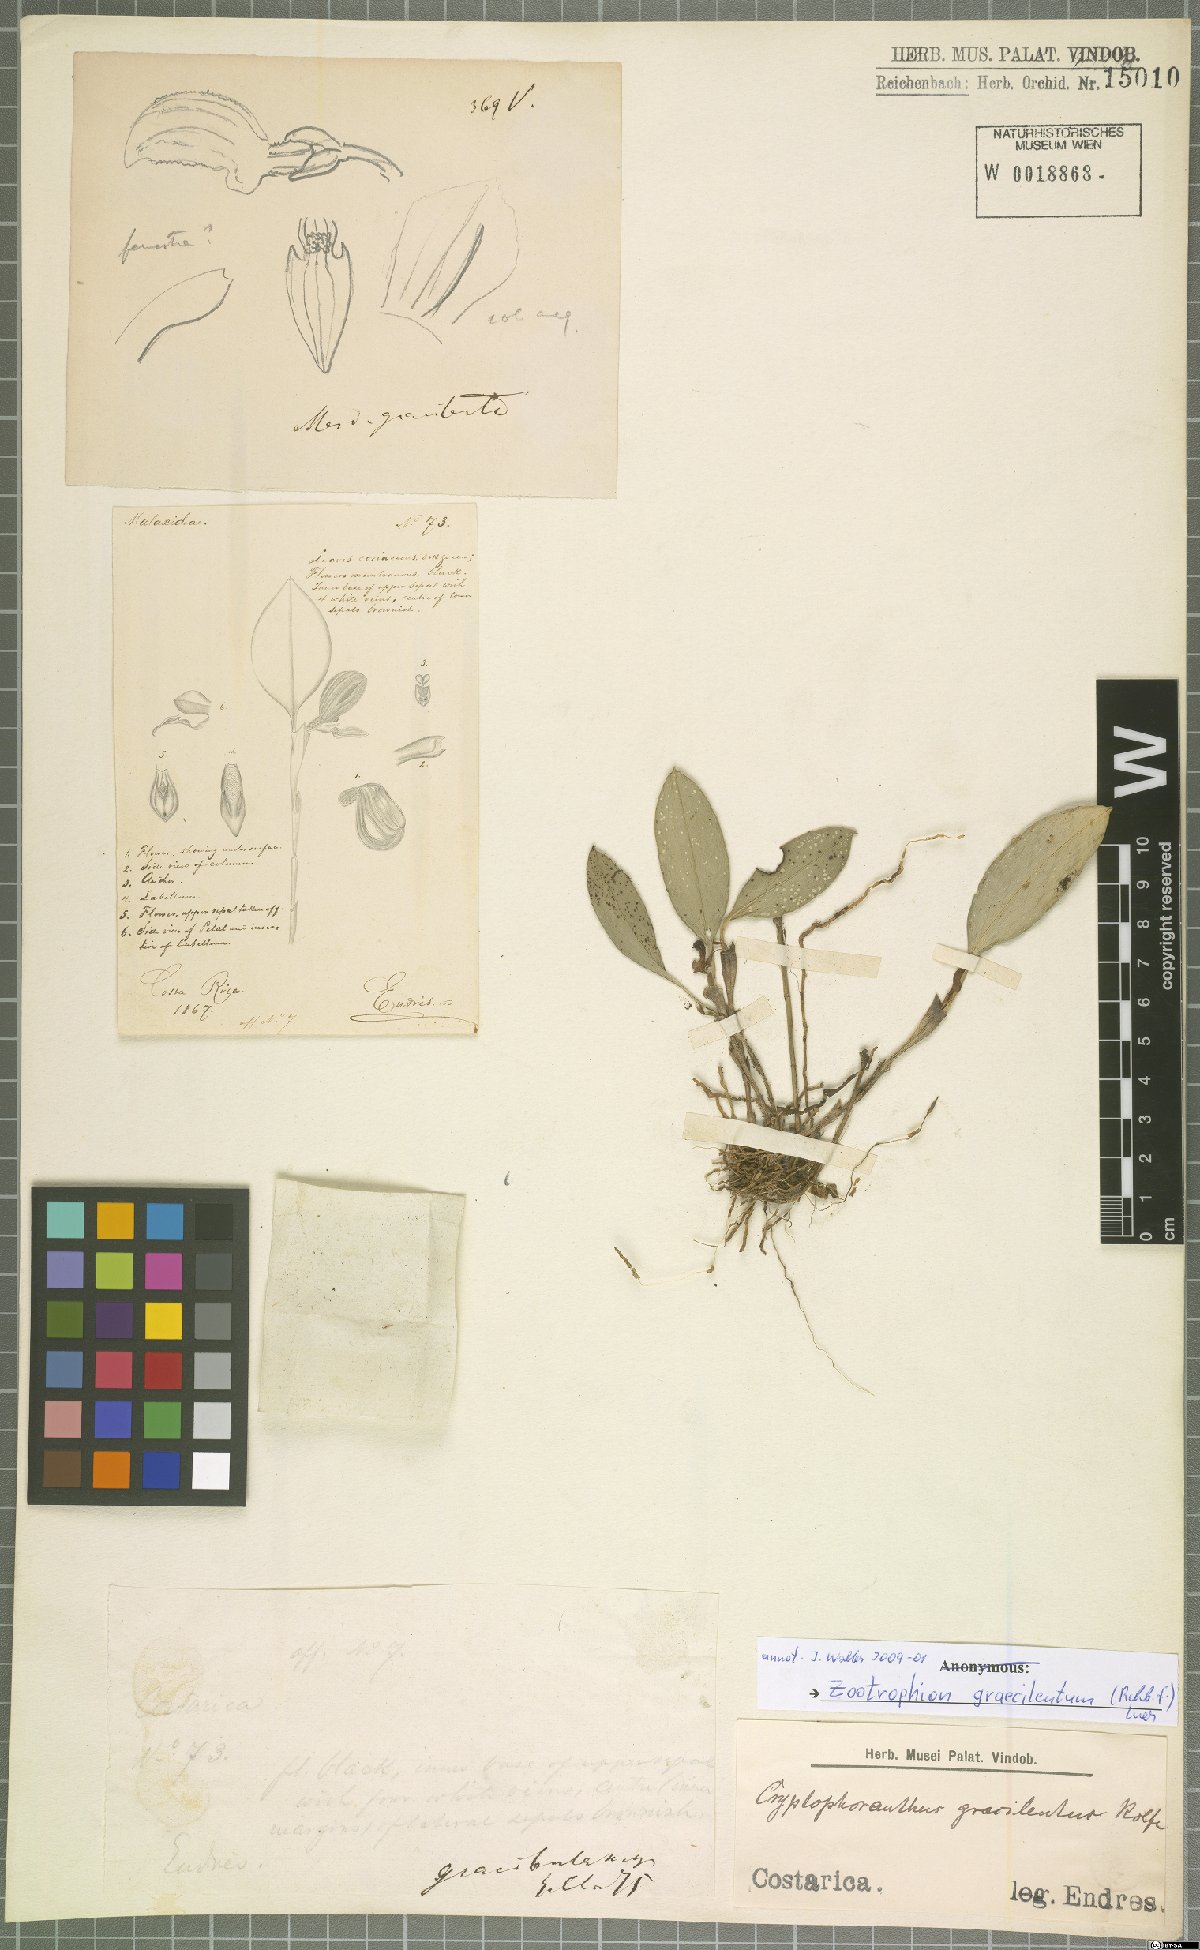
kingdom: Plantae
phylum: Tracheophyta
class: Liliopsida
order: Asparagales
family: Orchidaceae
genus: Zootrophion
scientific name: Zootrophion gracilentum
